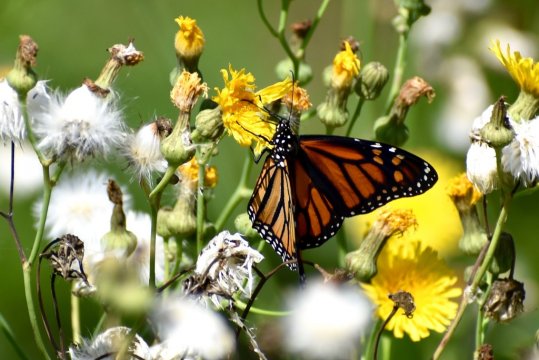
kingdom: Animalia
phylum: Arthropoda
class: Insecta
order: Lepidoptera
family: Nymphalidae
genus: Danaus
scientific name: Danaus plexippus
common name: Monarch
